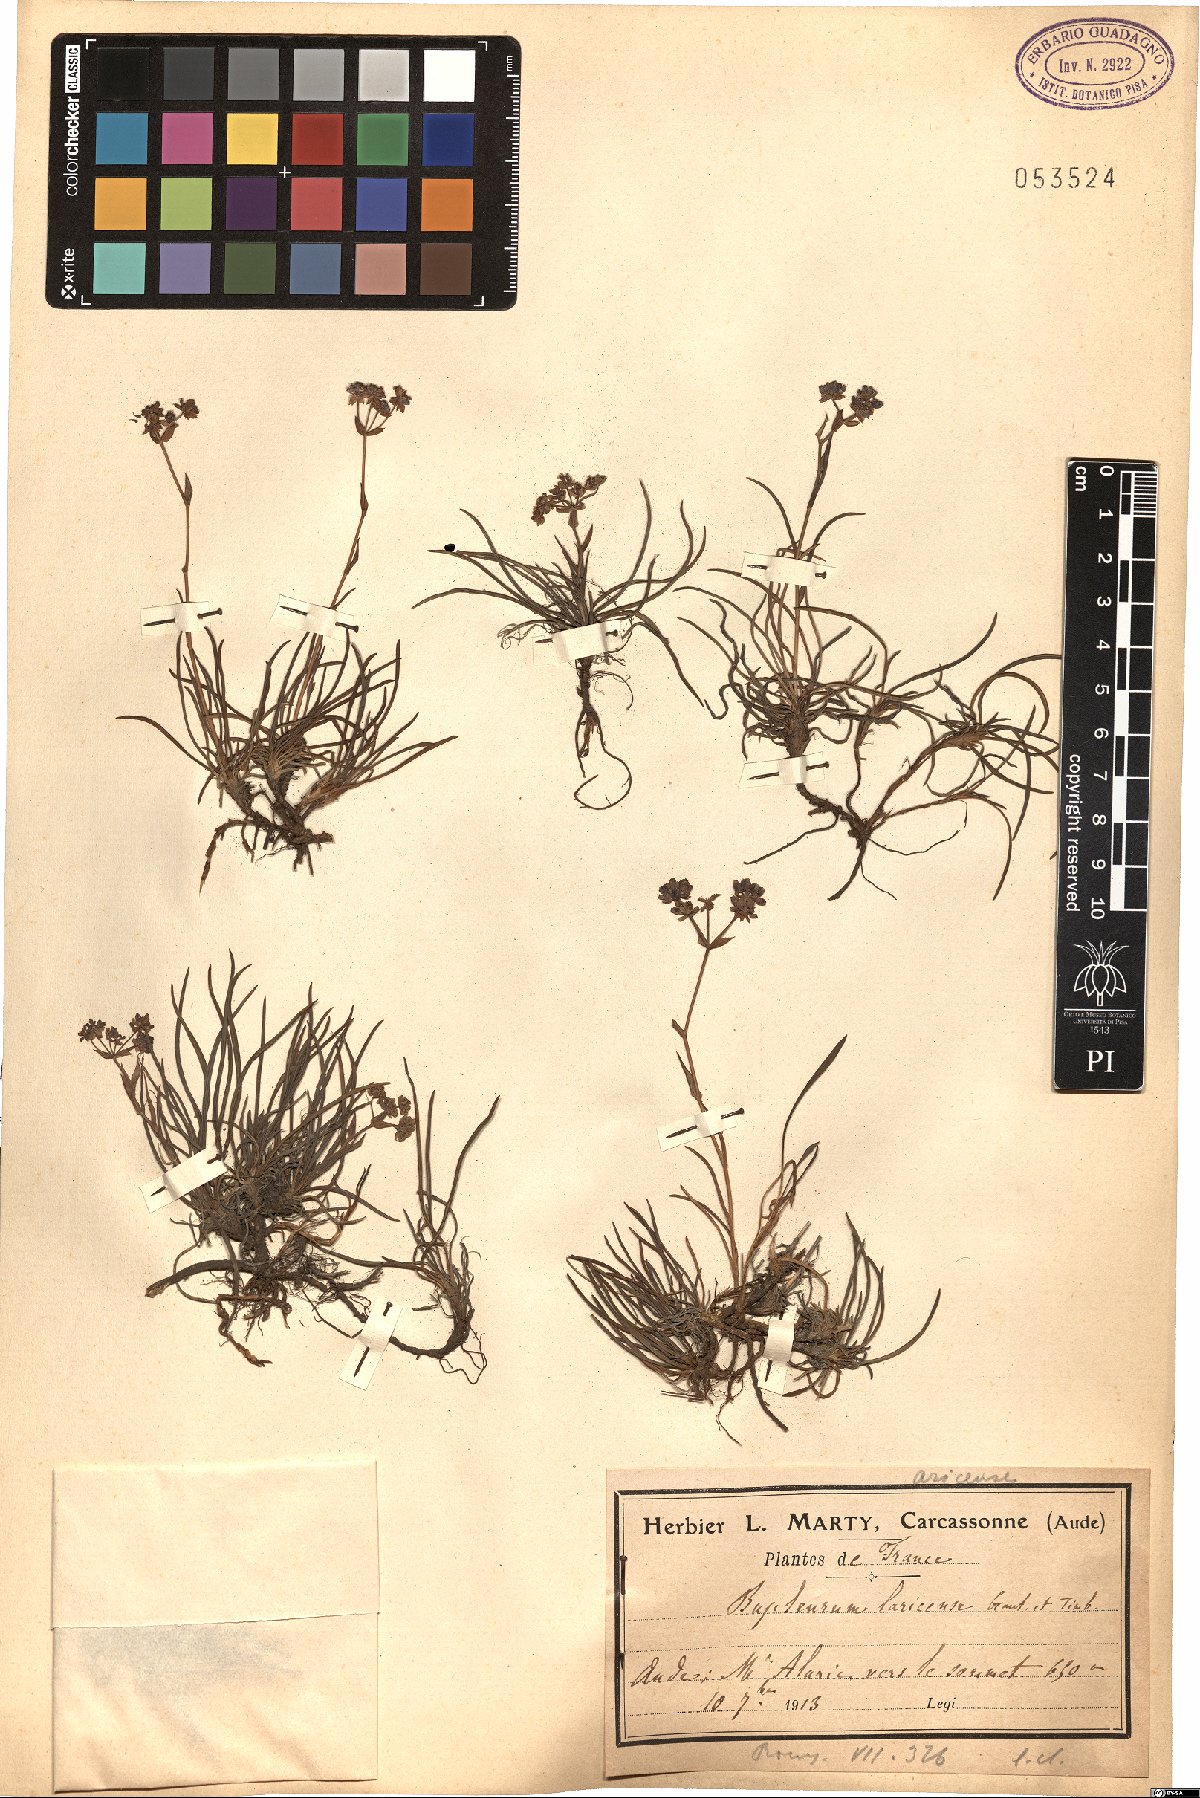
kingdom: Plantae
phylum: Tracheophyta
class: Magnoliopsida
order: Apiales
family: Apiaceae
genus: Bupleurum
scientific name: Bupleurum ranunculoides
